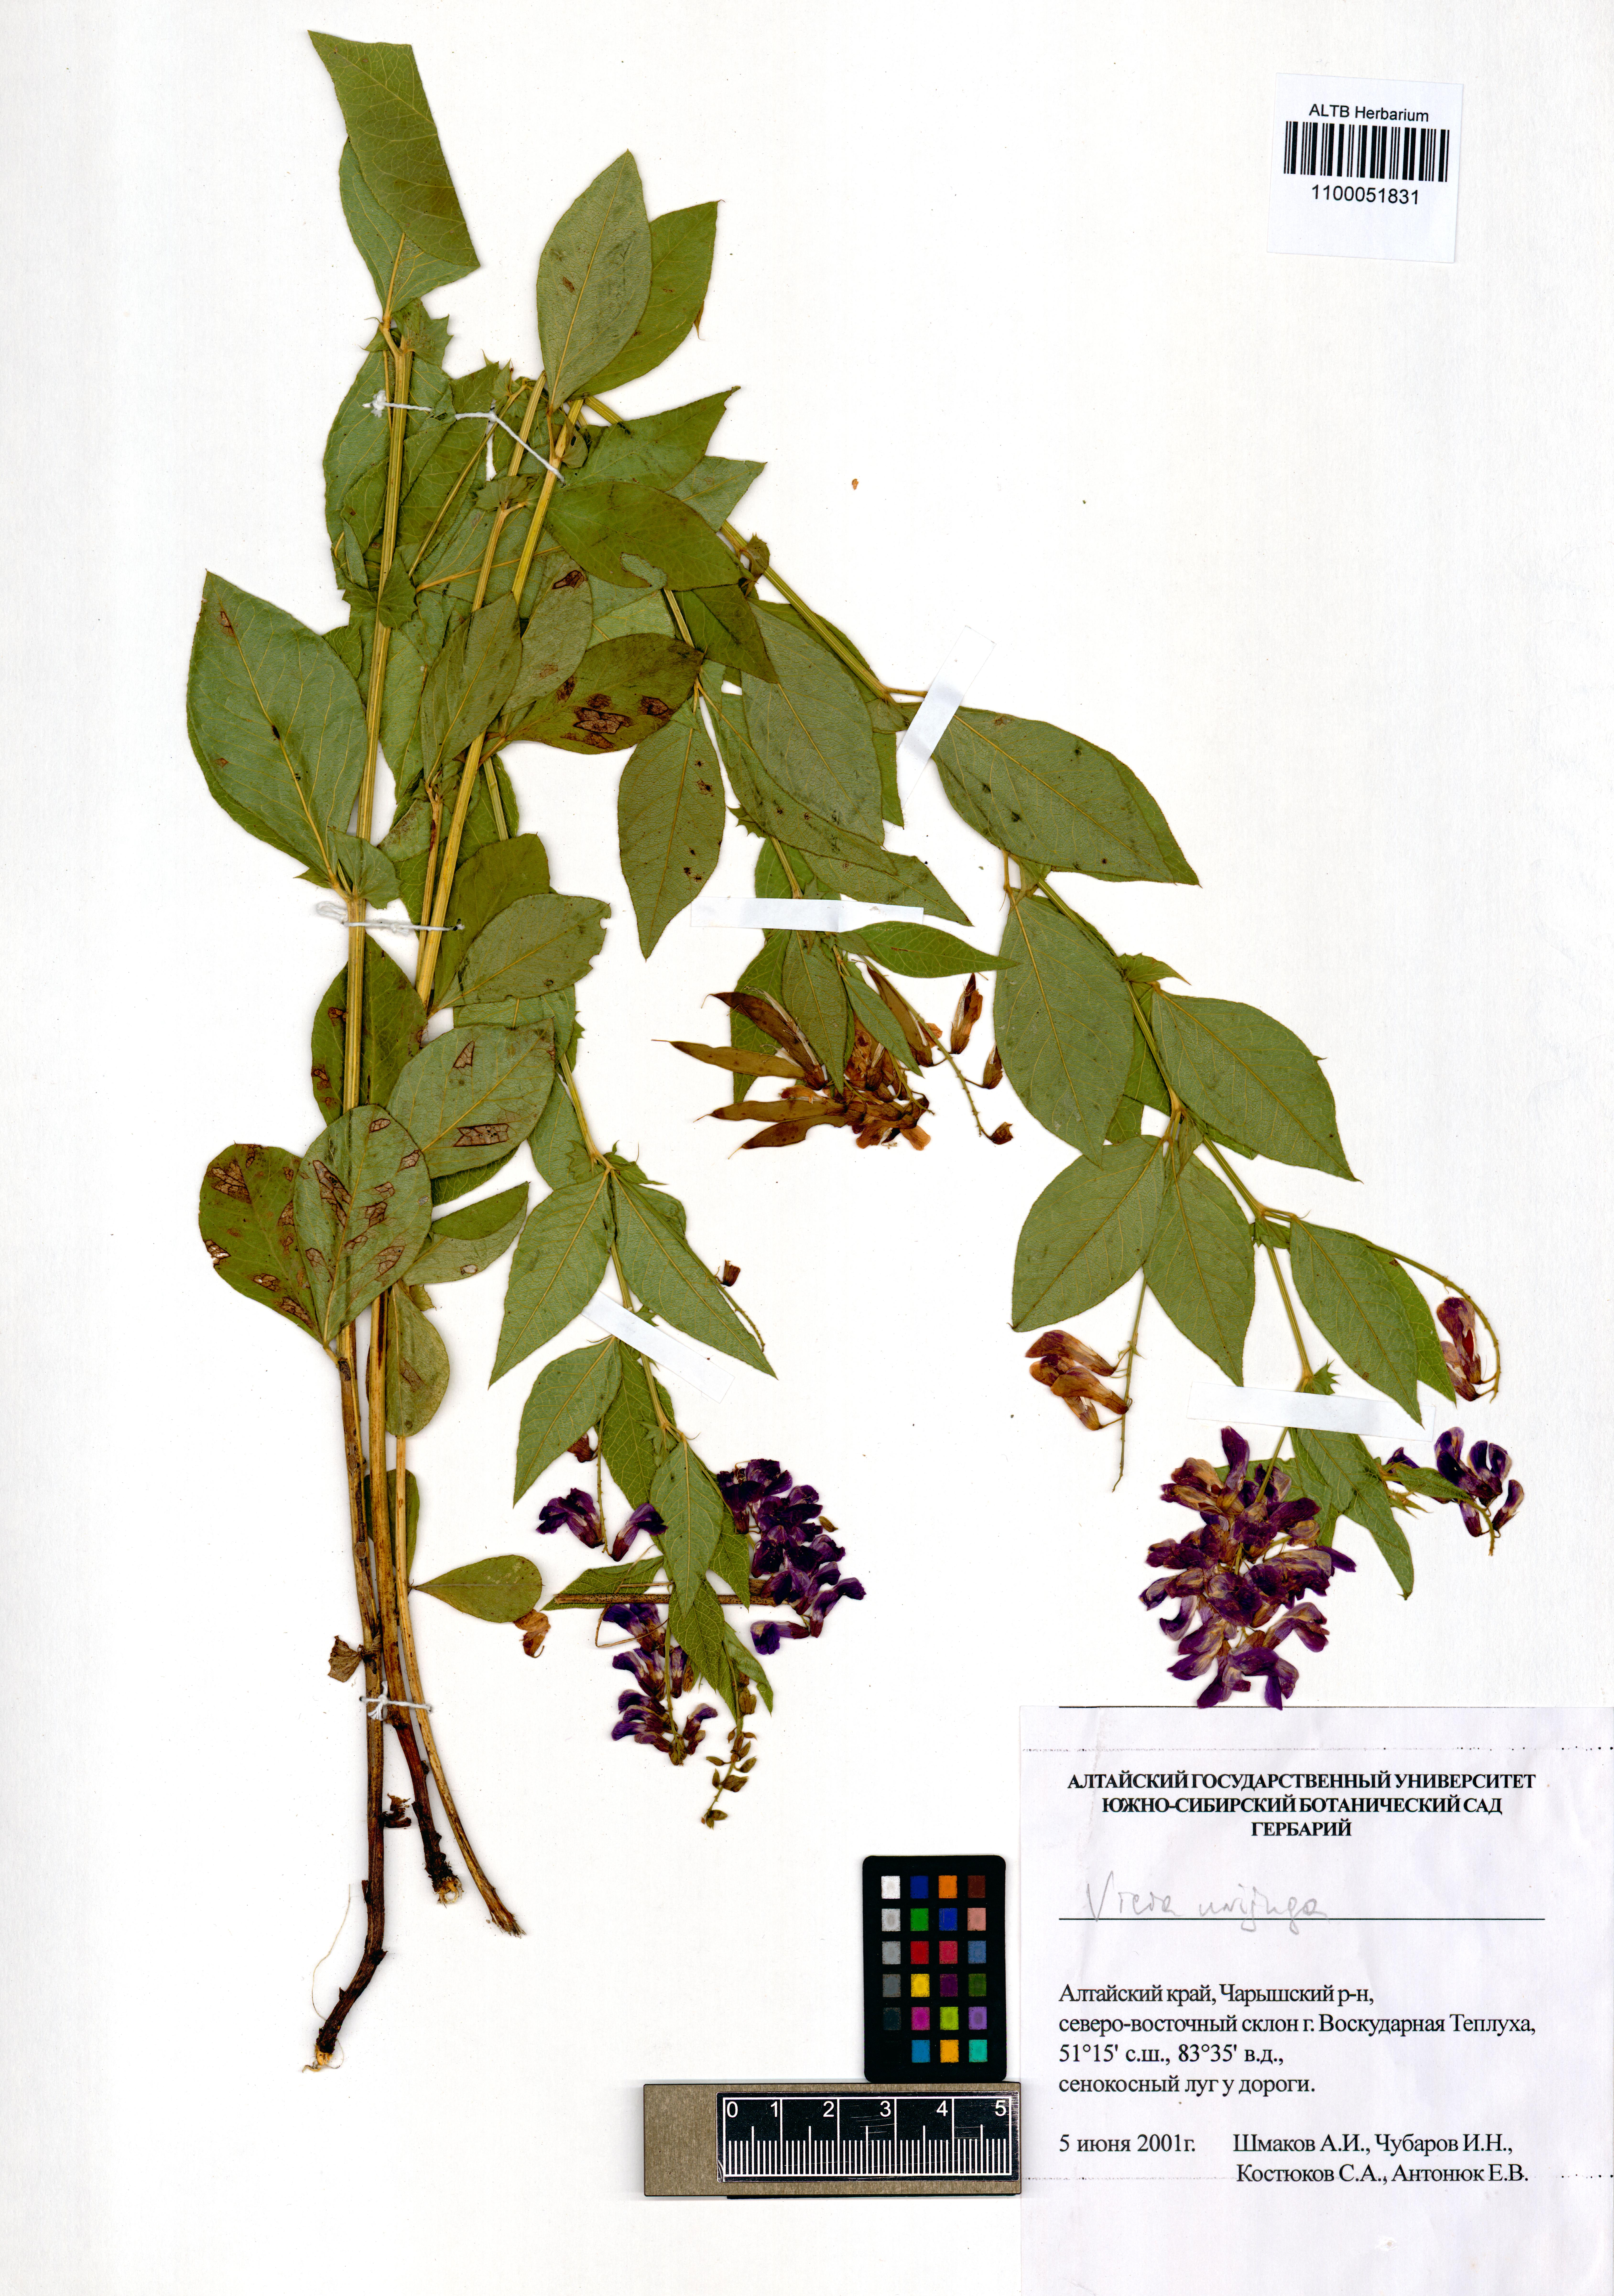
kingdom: Plantae
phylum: Tracheophyta
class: Magnoliopsida
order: Fabales
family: Fabaceae
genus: Vicia
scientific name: Vicia unijuga
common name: Two-leaf vetch
